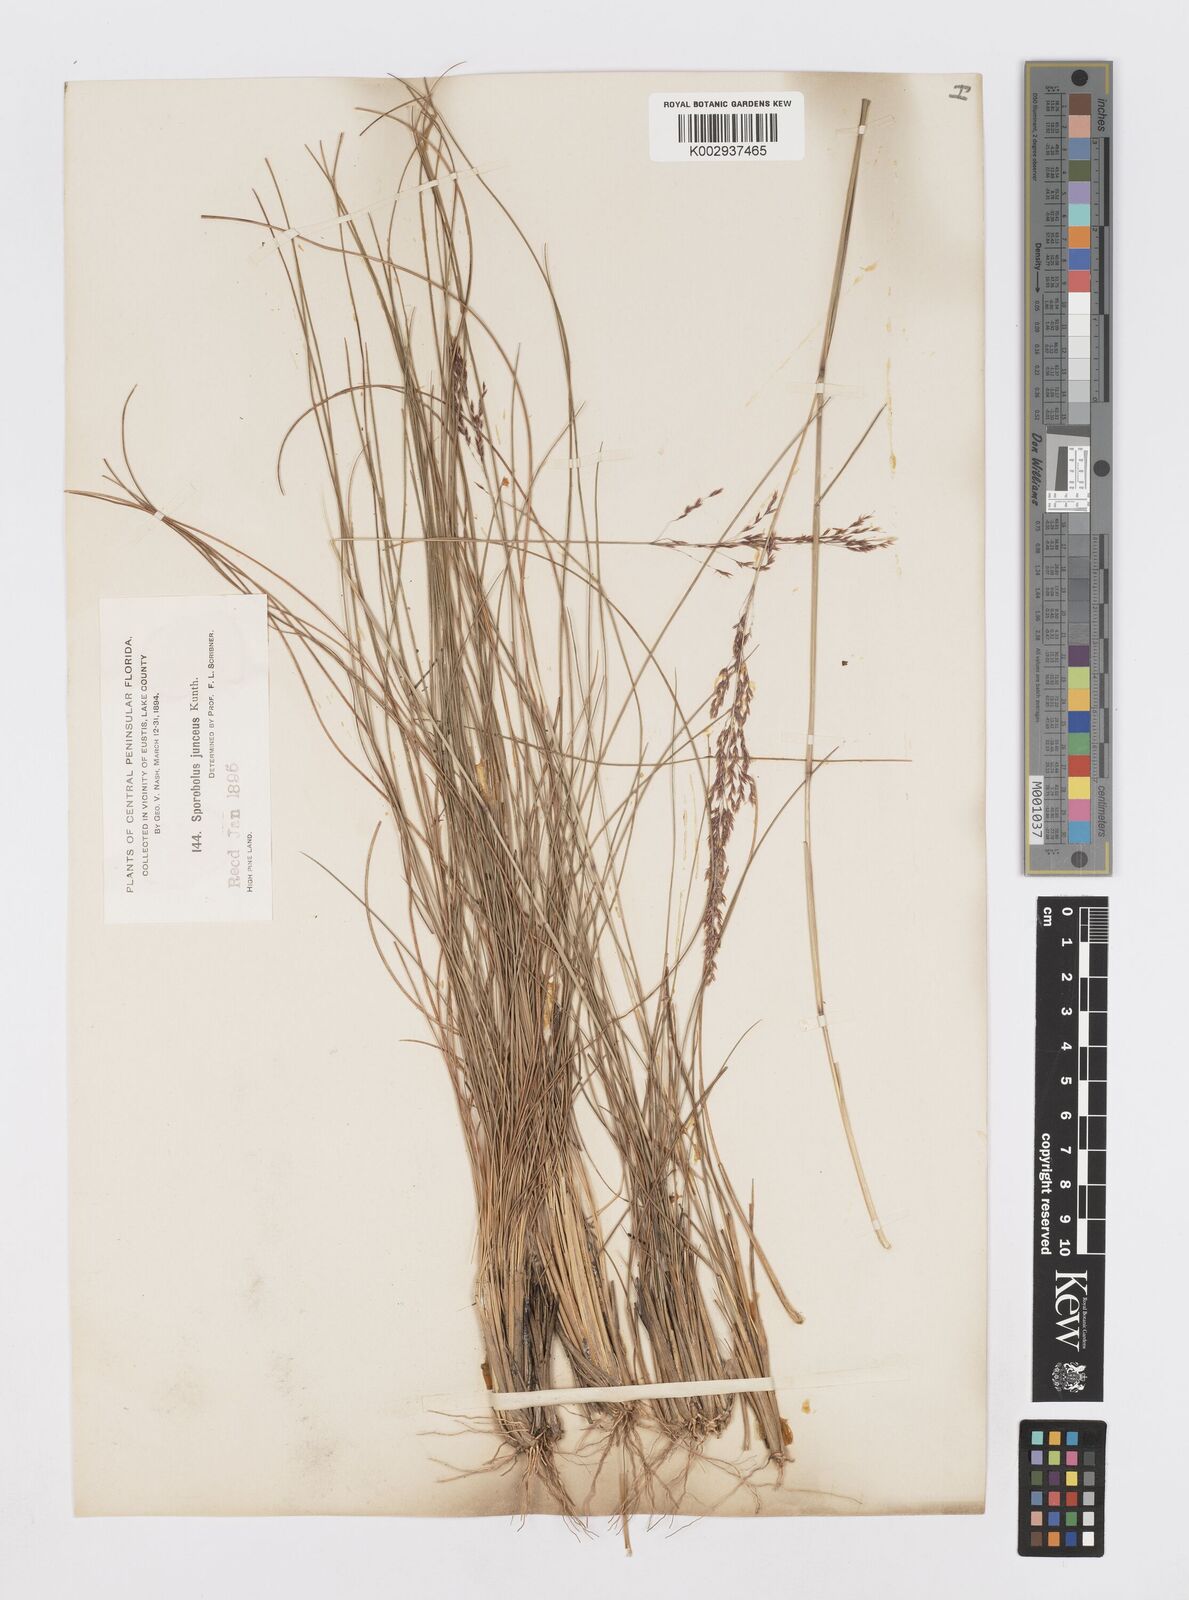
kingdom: Plantae
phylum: Tracheophyta
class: Liliopsida
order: Poales
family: Poaceae
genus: Sporobolus
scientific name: Sporobolus junceus
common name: Lizard grass
